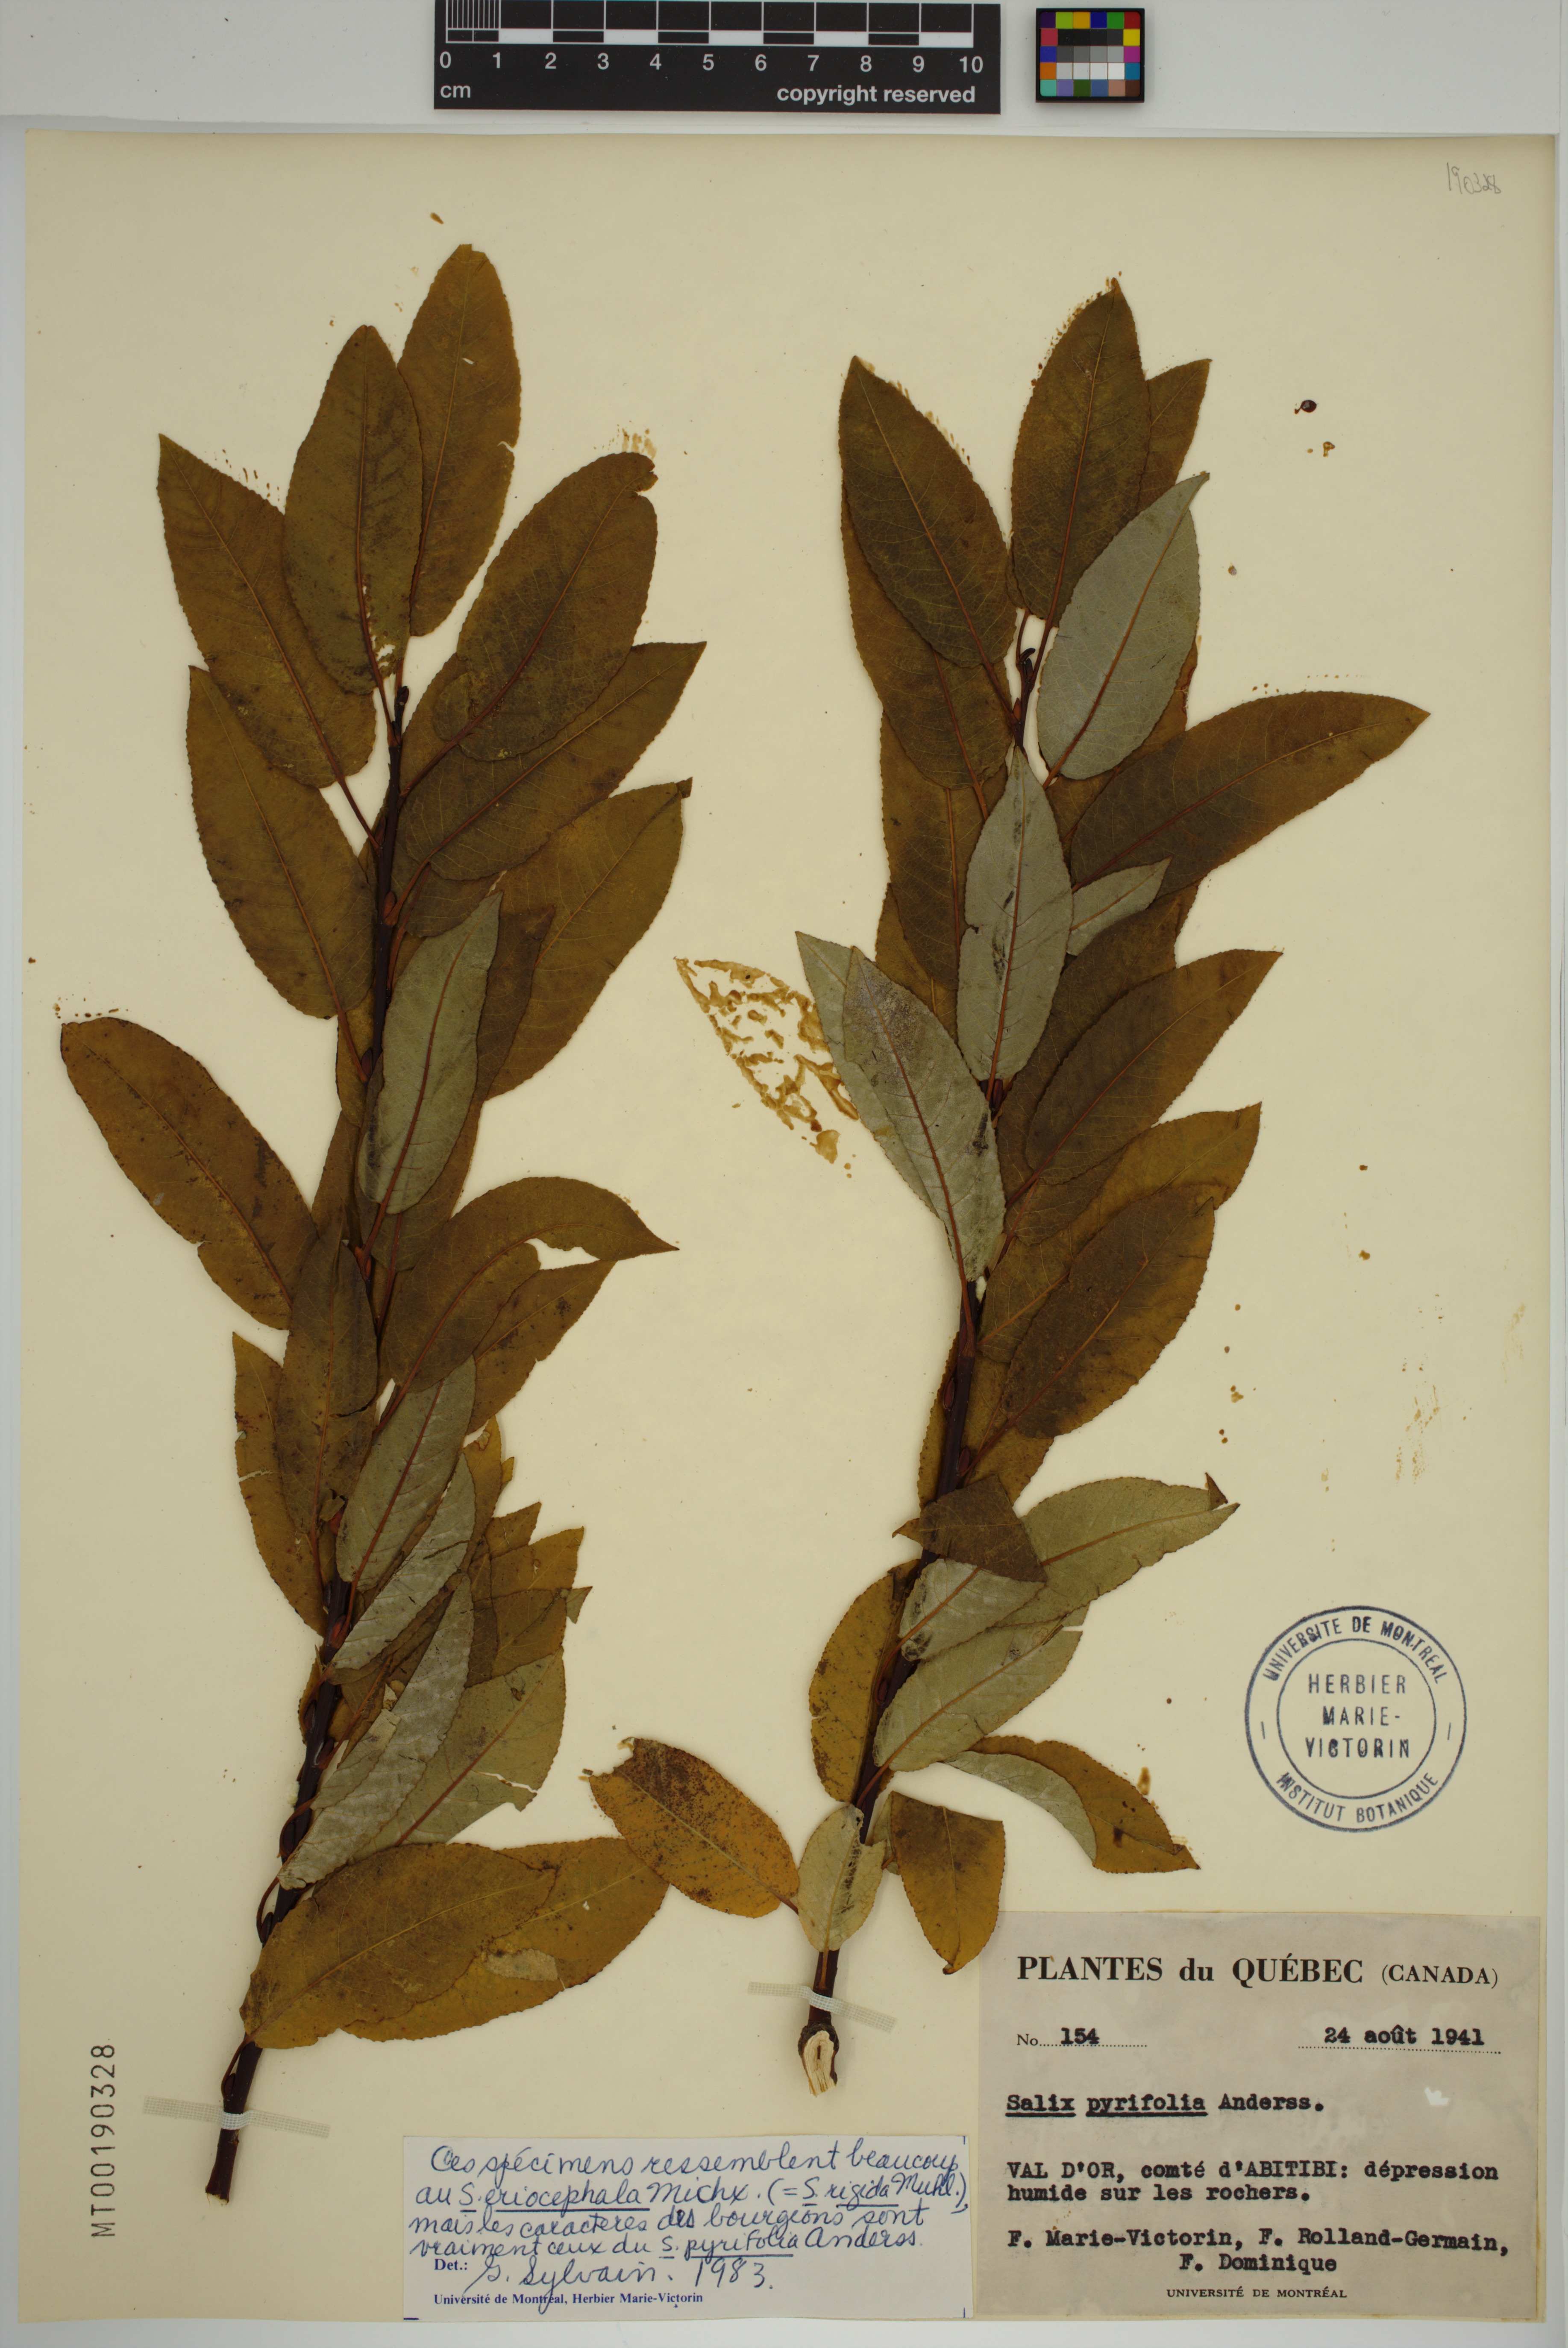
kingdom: Plantae
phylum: Tracheophyta
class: Magnoliopsida
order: Malpighiales
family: Salicaceae
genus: Salix
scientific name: Salix pyrifolia
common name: Balsam willow
